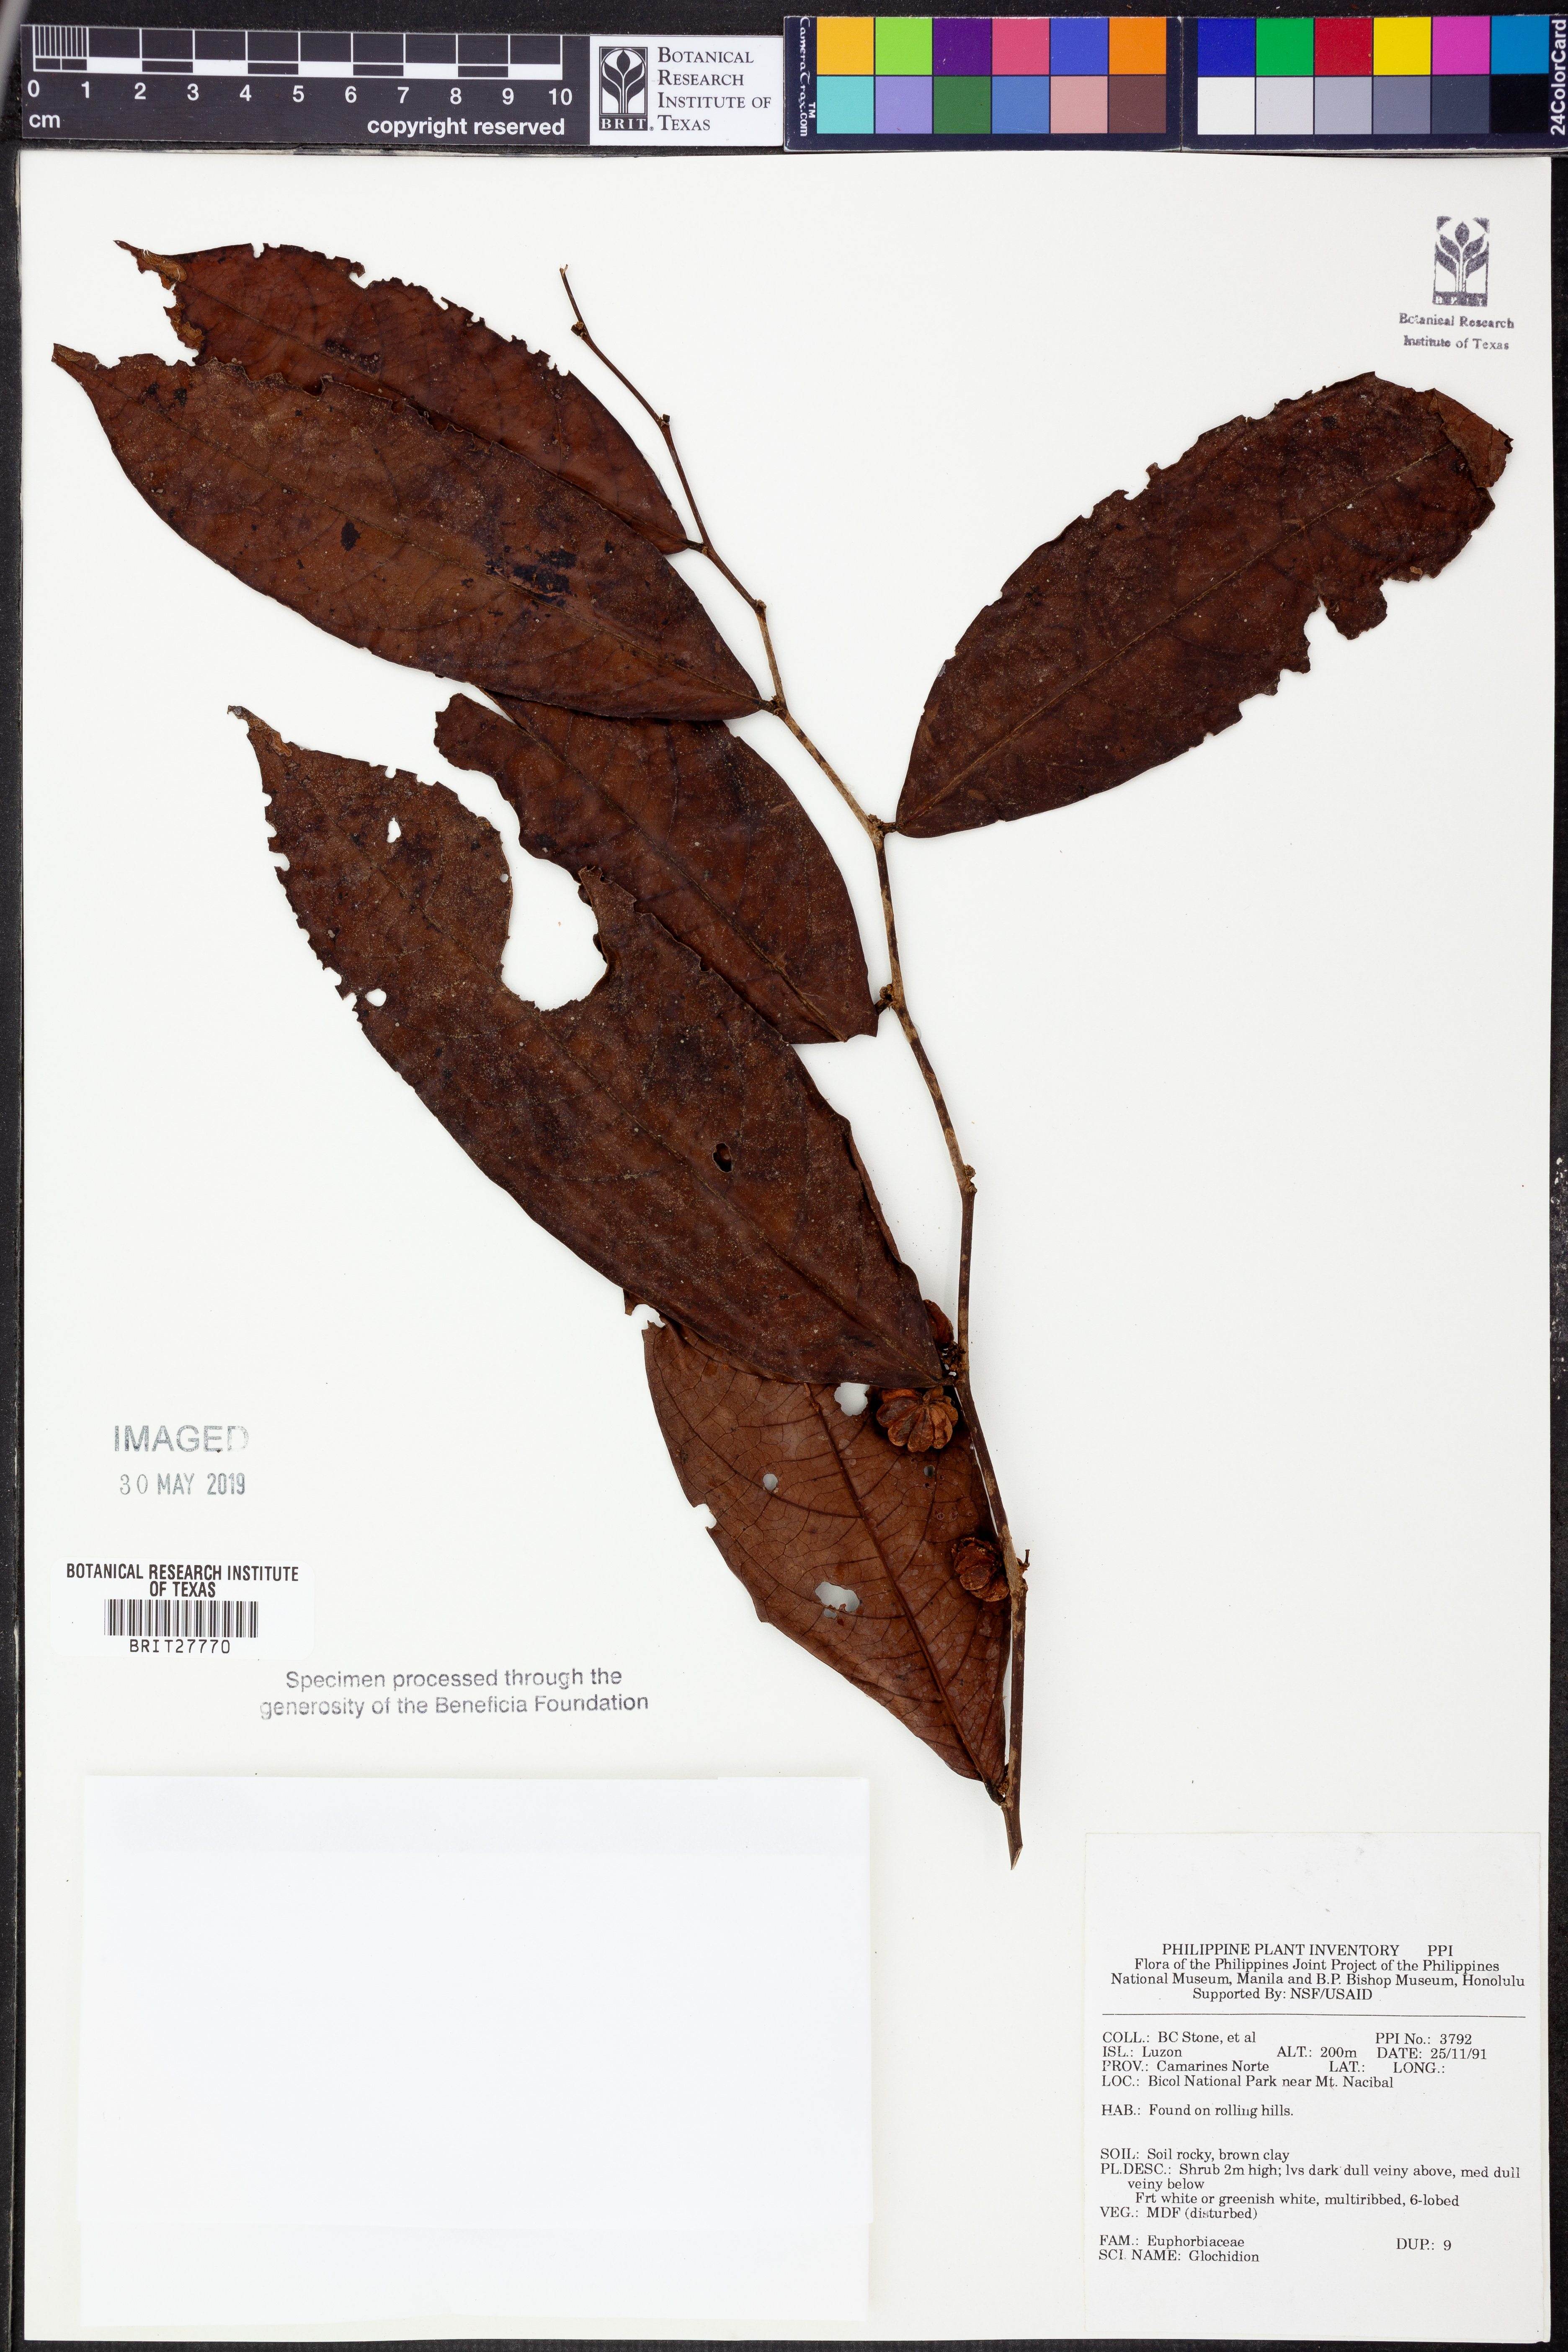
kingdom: Plantae
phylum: Tracheophyta
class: Magnoliopsida
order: Malpighiales
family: Phyllanthaceae
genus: Glochidion
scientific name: Glochidion
